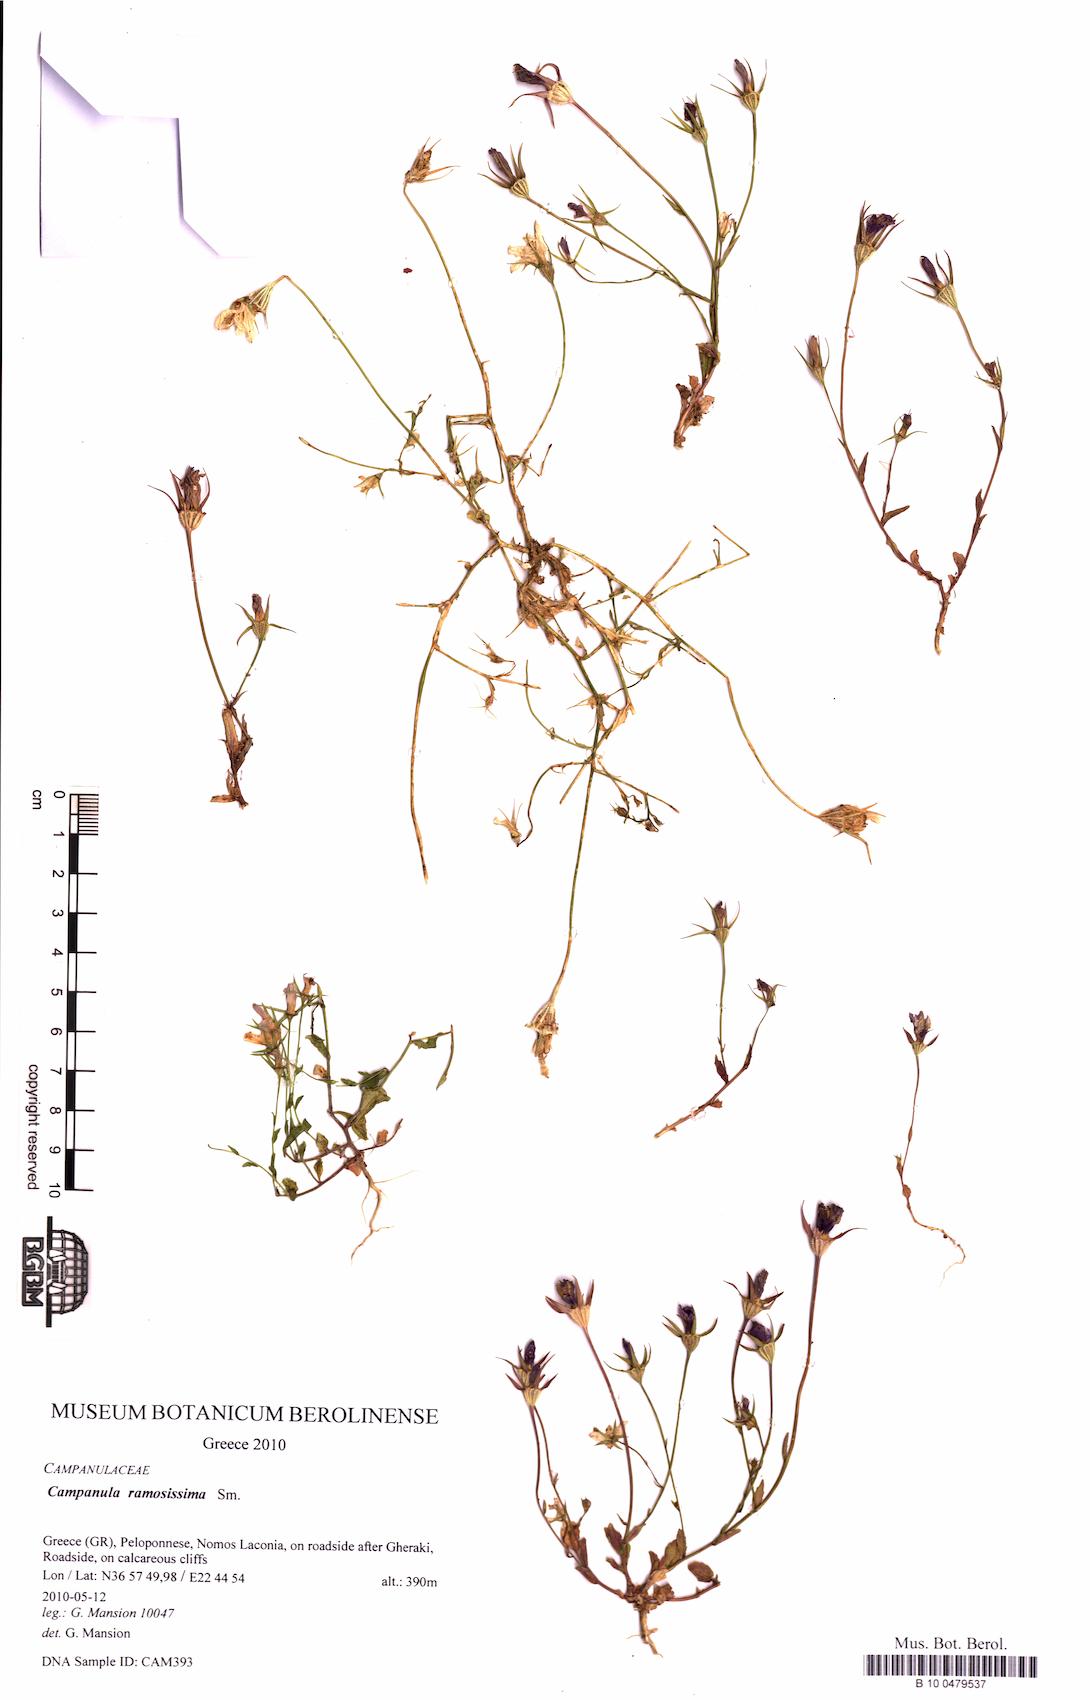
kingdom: Plantae
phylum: Tracheophyta
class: Magnoliopsida
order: Asterales
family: Campanulaceae
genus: Campanula
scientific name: Campanula ramosissima
